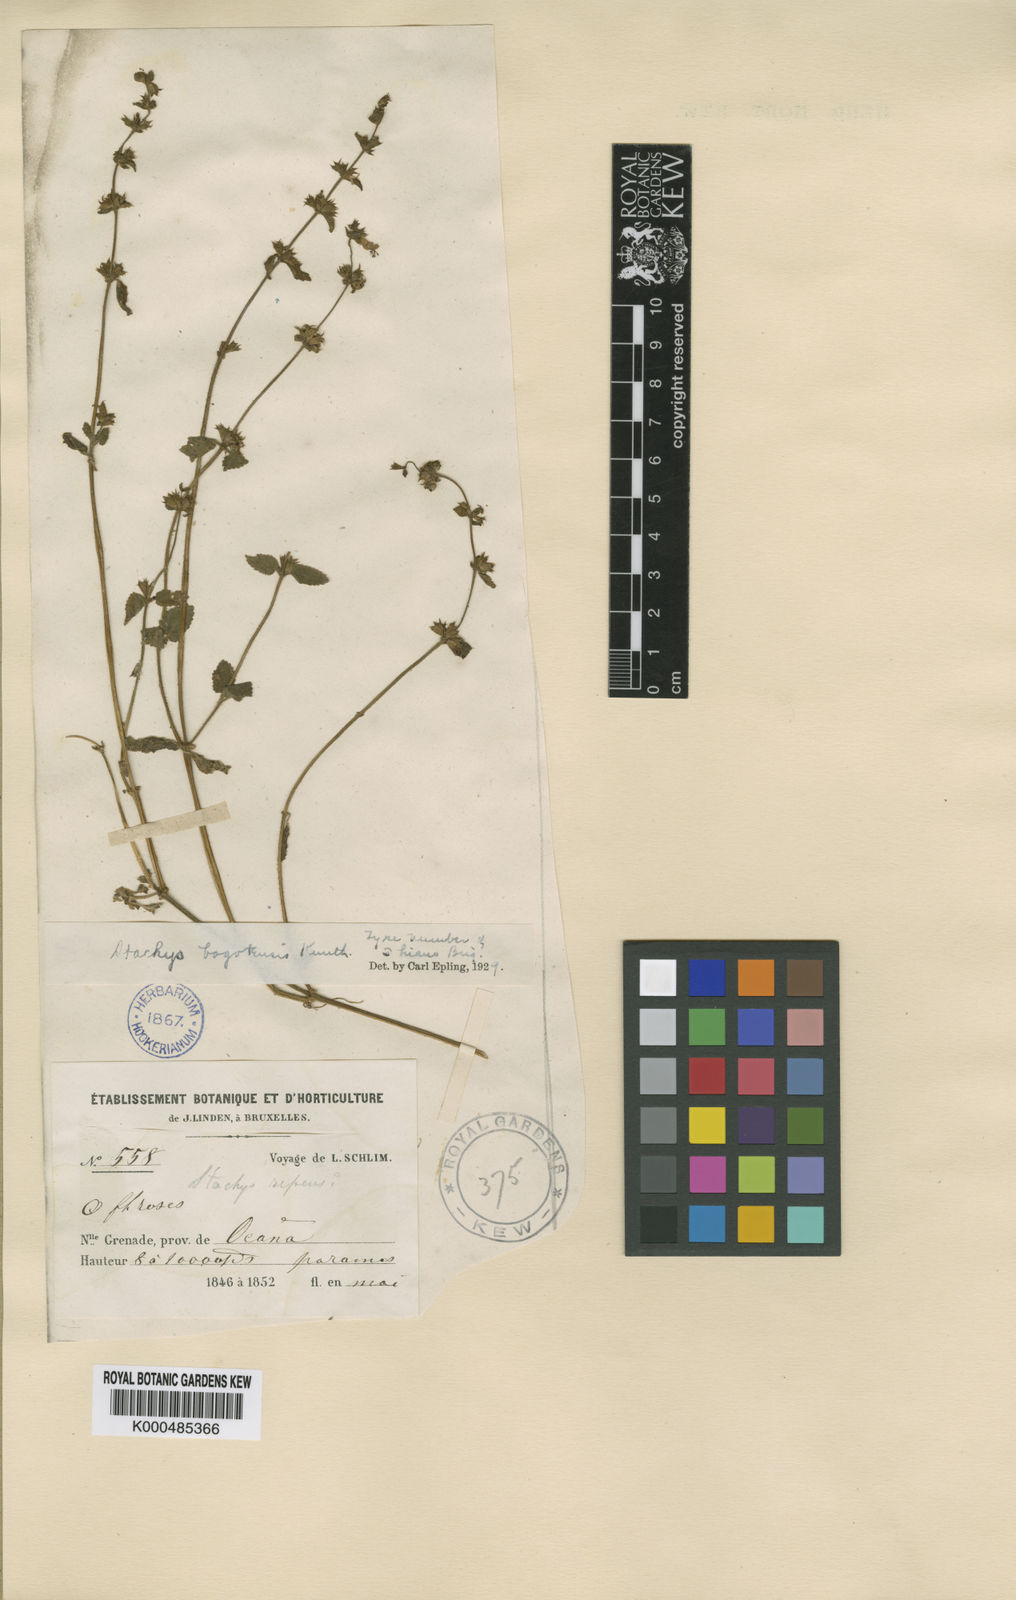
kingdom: Plantae
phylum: Tracheophyta
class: Magnoliopsida
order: Lamiales
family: Lamiaceae
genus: Stachys
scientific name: Stachys bogotensis
